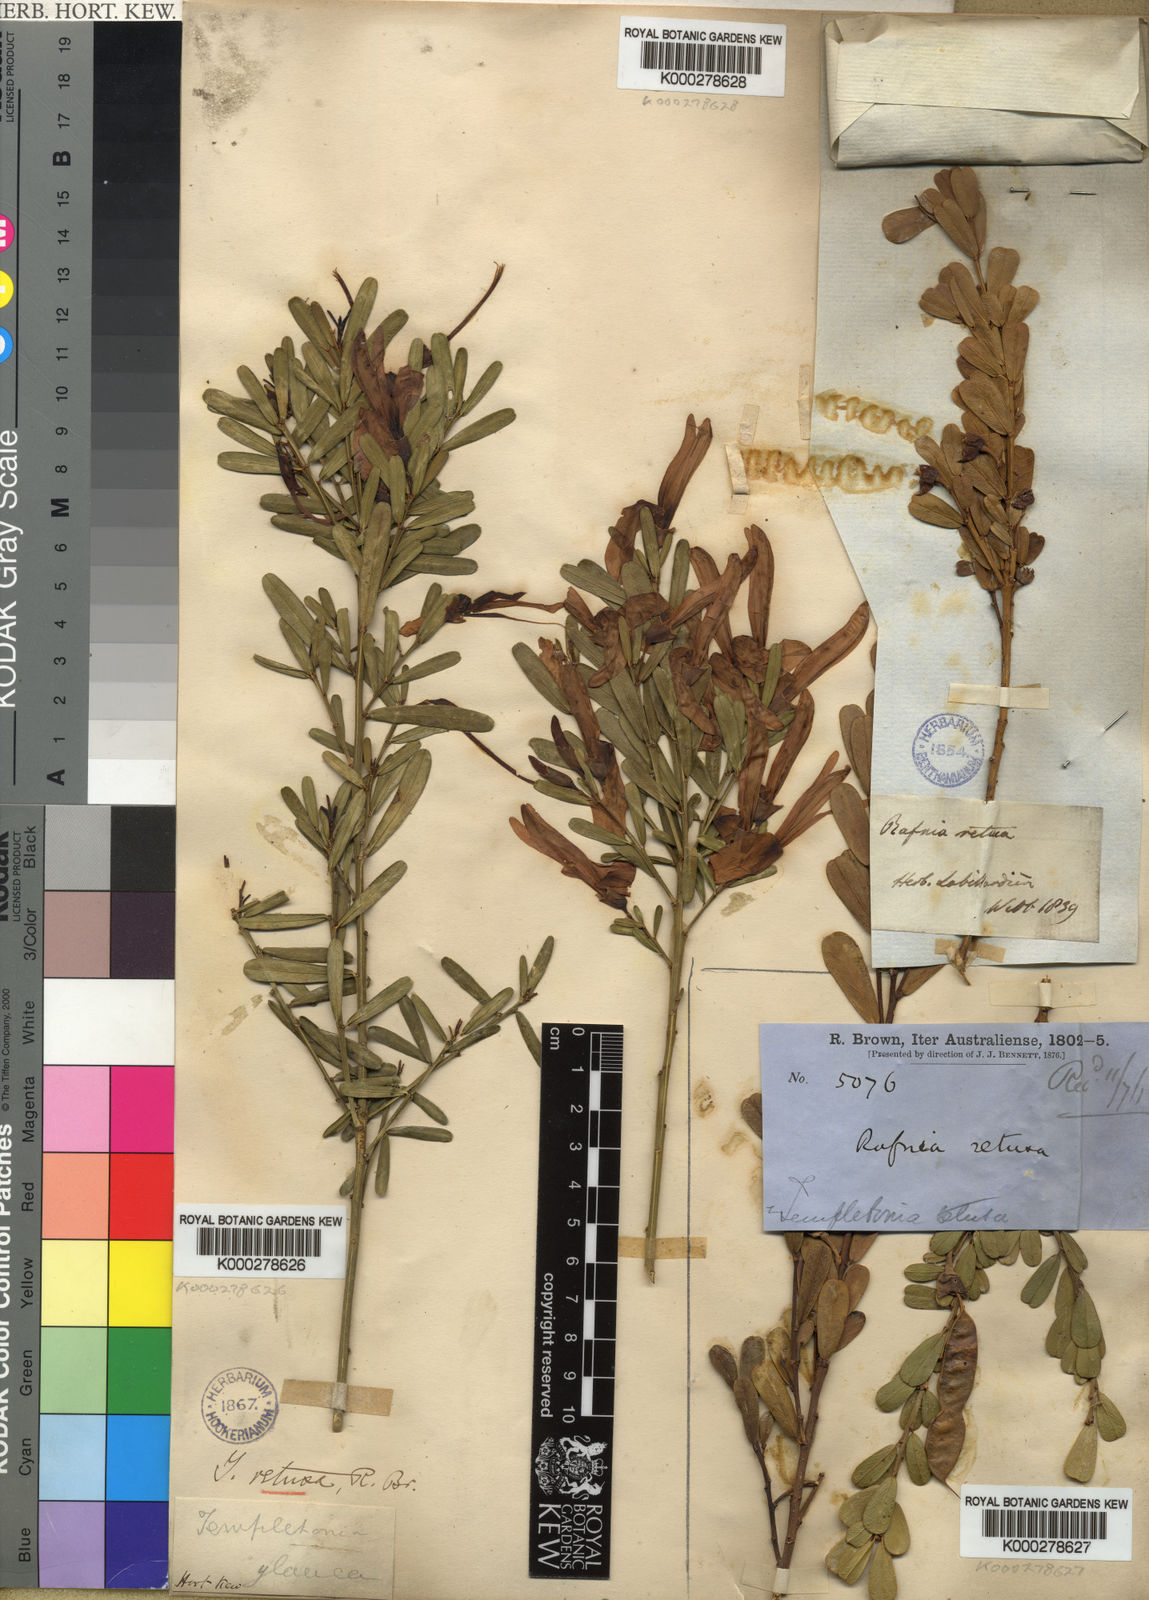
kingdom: Plantae
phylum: Tracheophyta
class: Magnoliopsida
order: Fabales
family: Fabaceae
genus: Templetonia
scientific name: Templetonia retusa
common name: Cockies'-tongue
